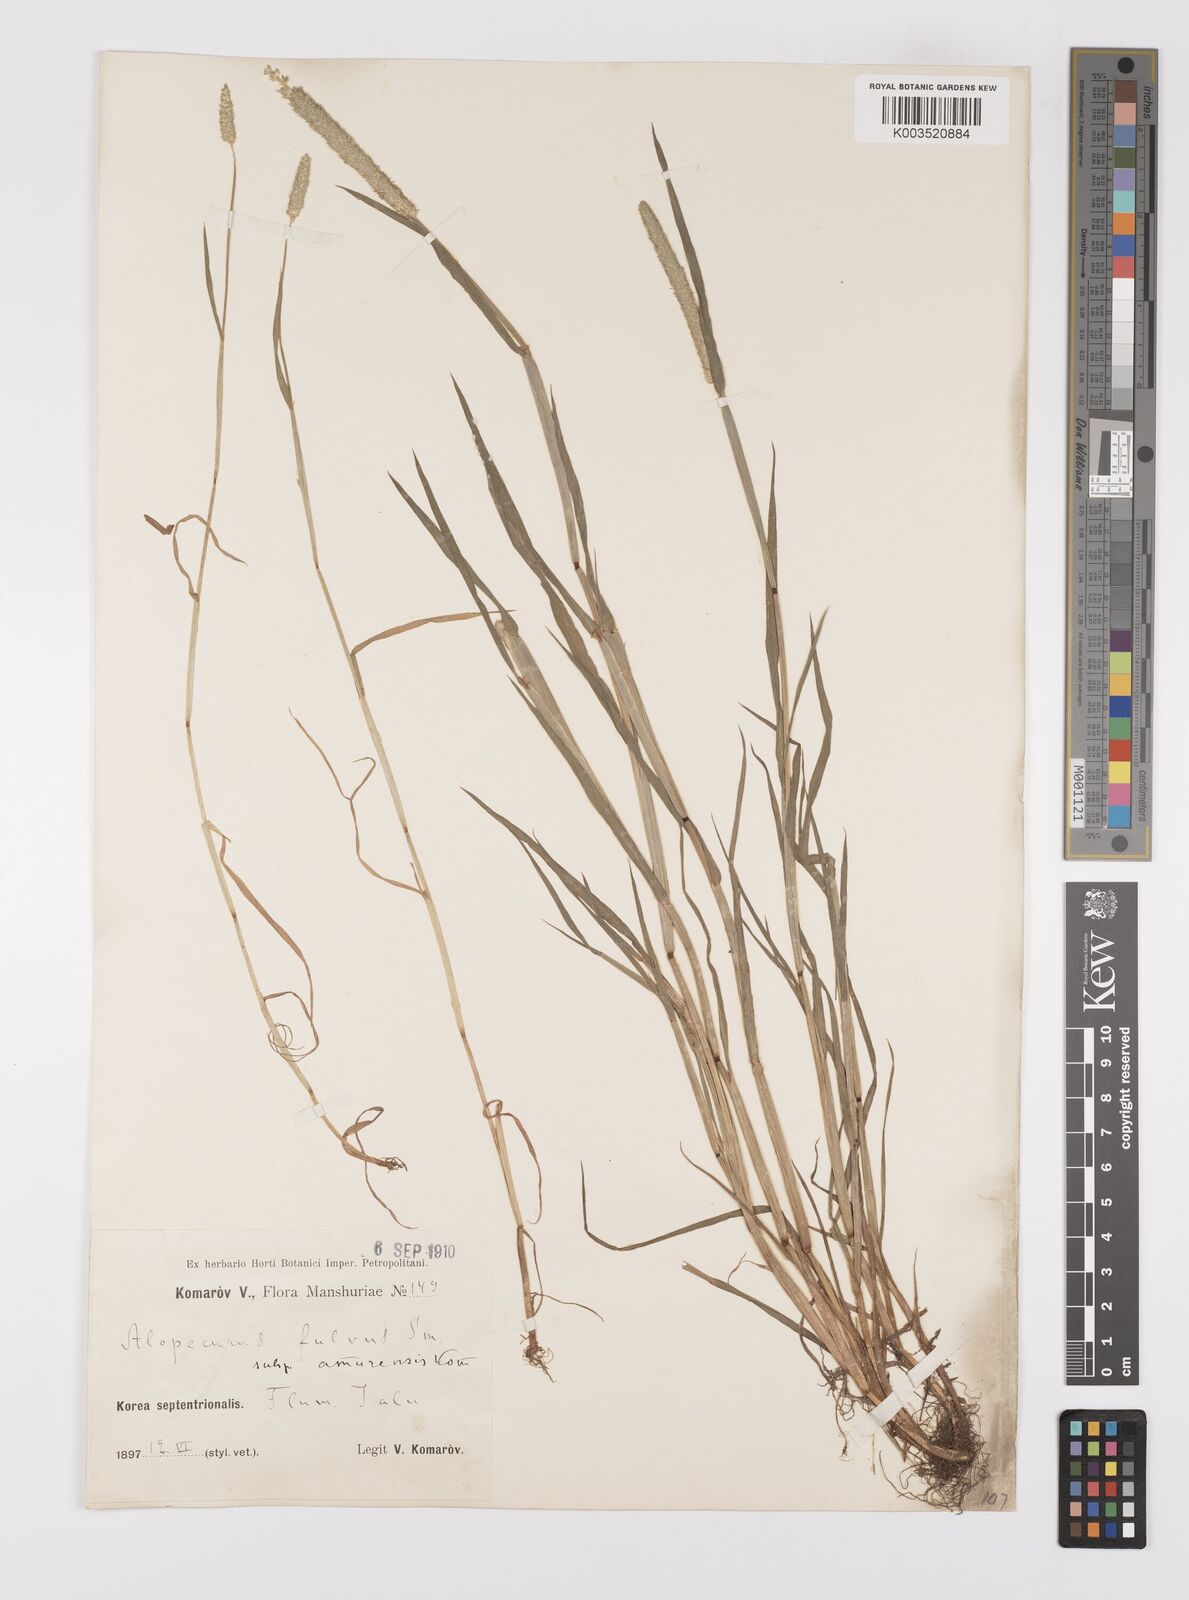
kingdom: Plantae
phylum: Tracheophyta
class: Liliopsida
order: Poales
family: Poaceae
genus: Alopecurus
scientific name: Alopecurus aequalis
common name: Orange foxtail
